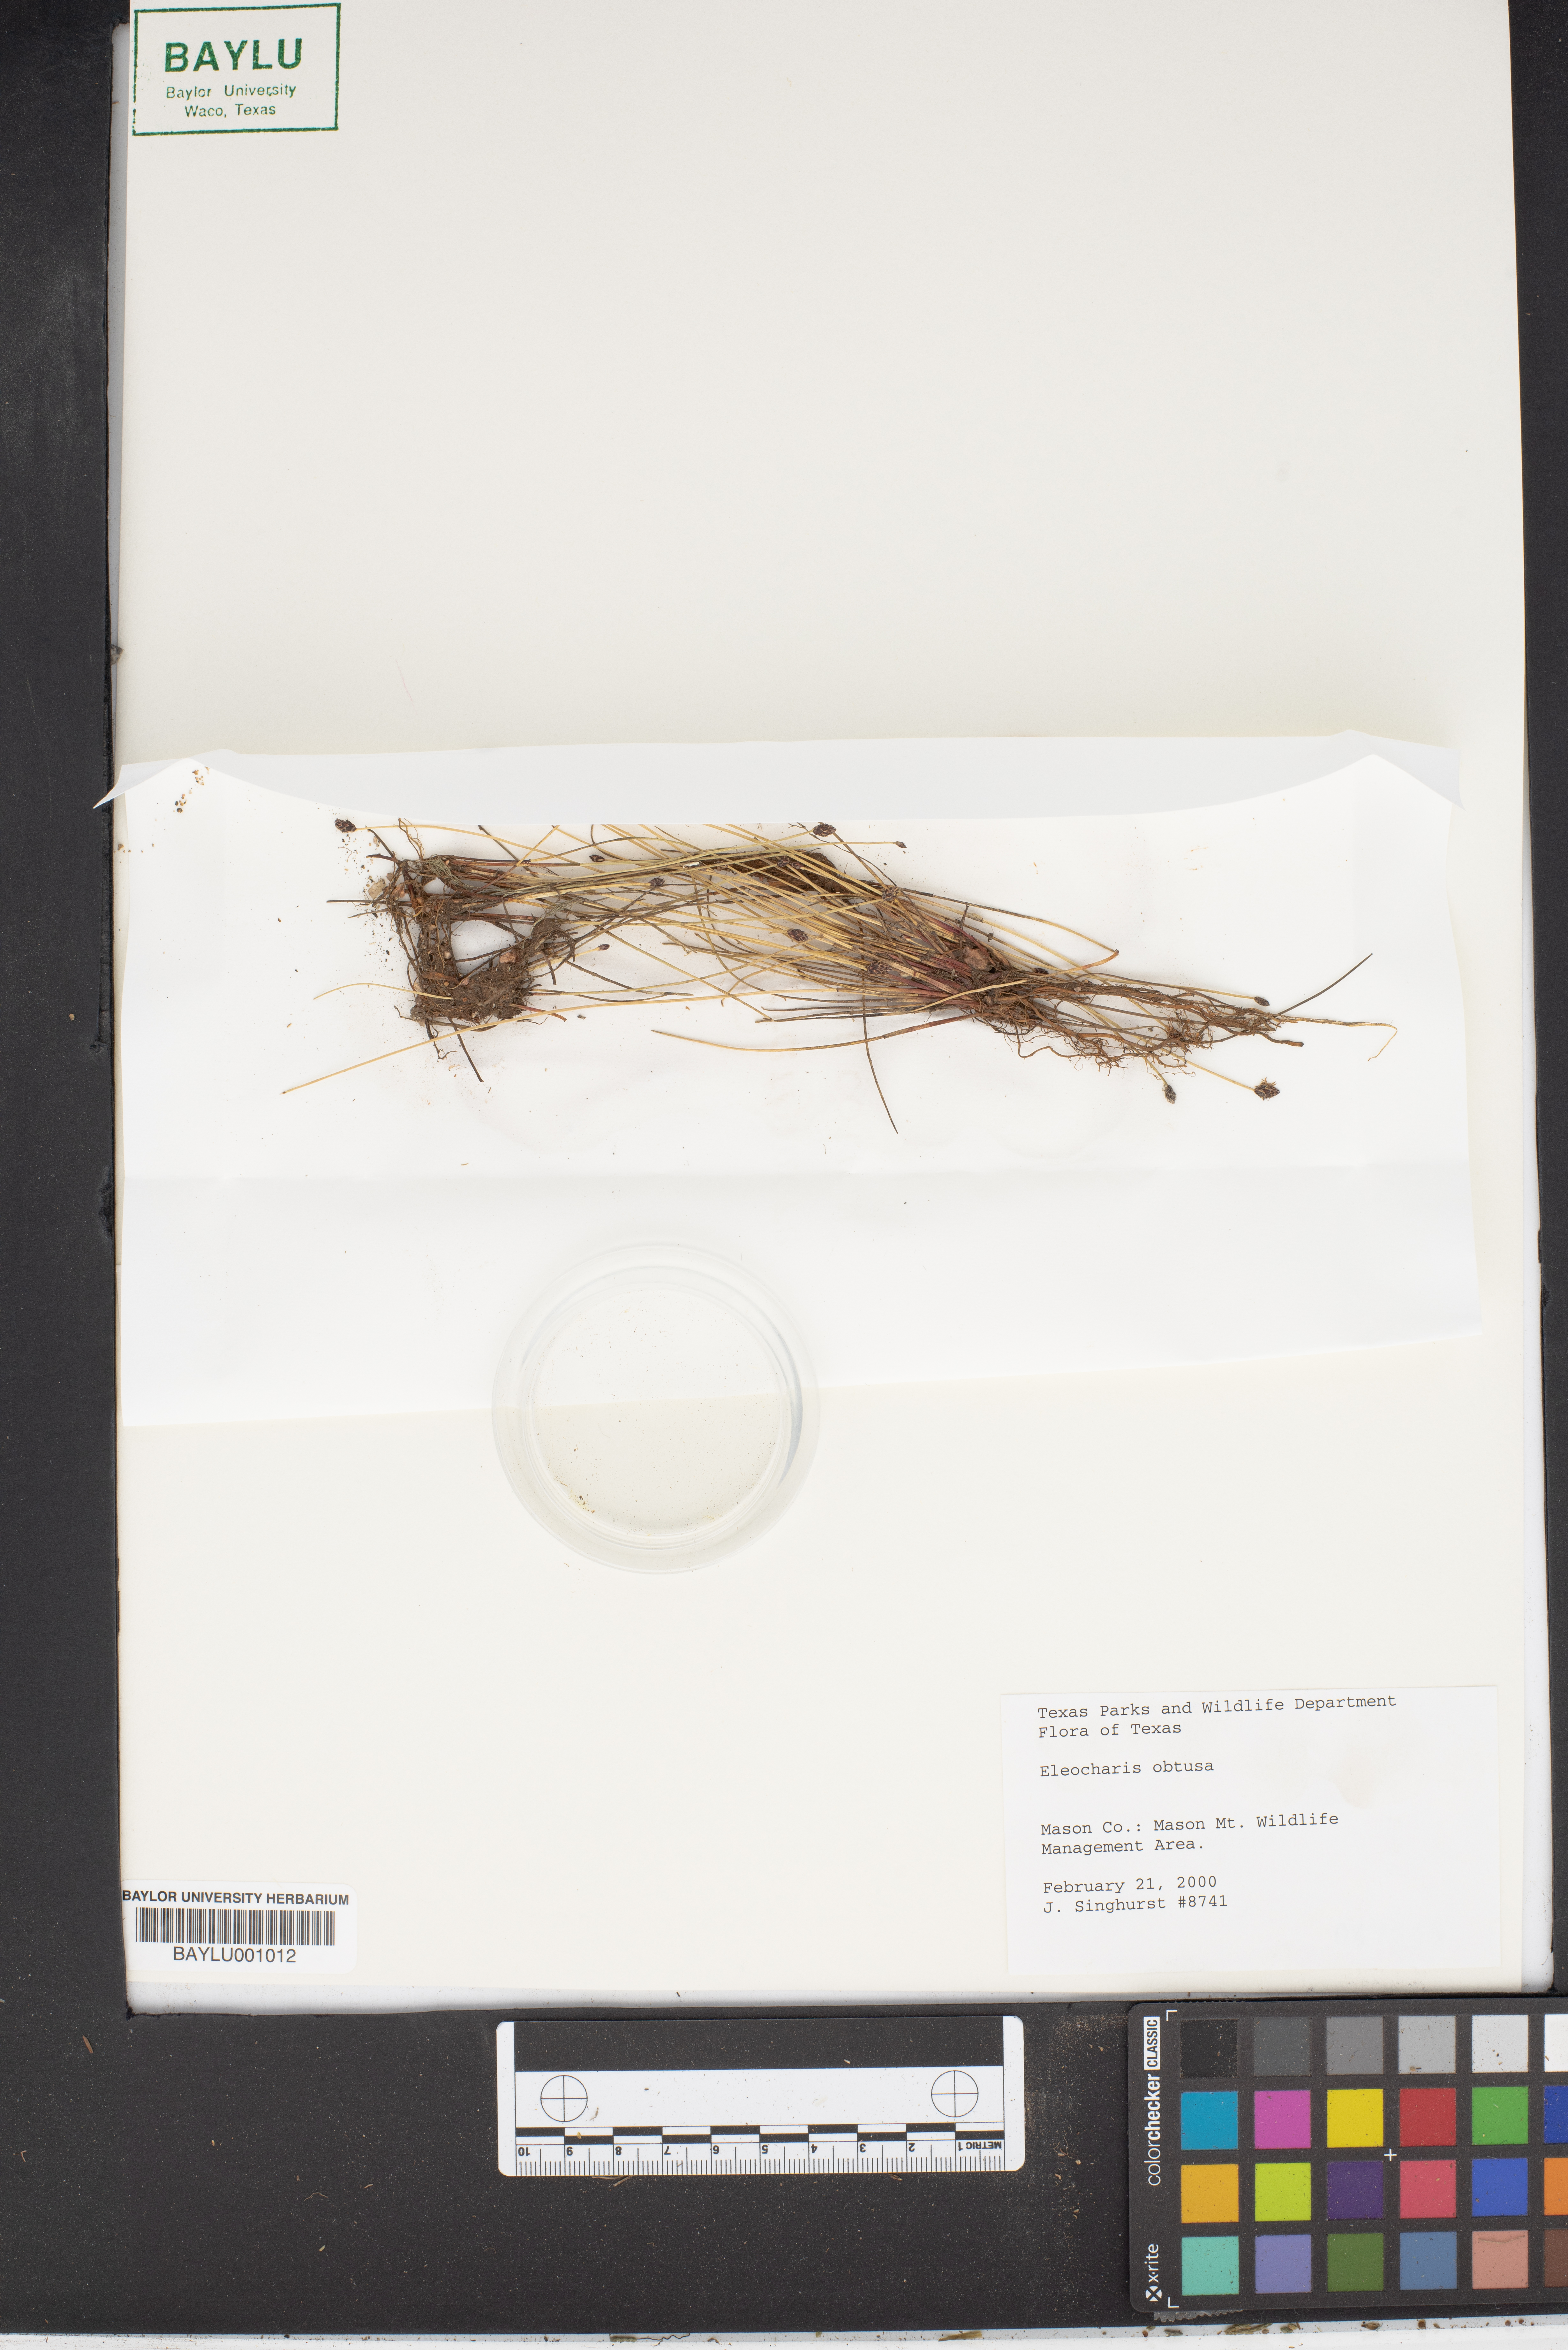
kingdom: Plantae
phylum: Tracheophyta
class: Liliopsida
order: Poales
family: Cyperaceae
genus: Eleocharis
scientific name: Eleocharis obtusa
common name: Blunt spikerush
